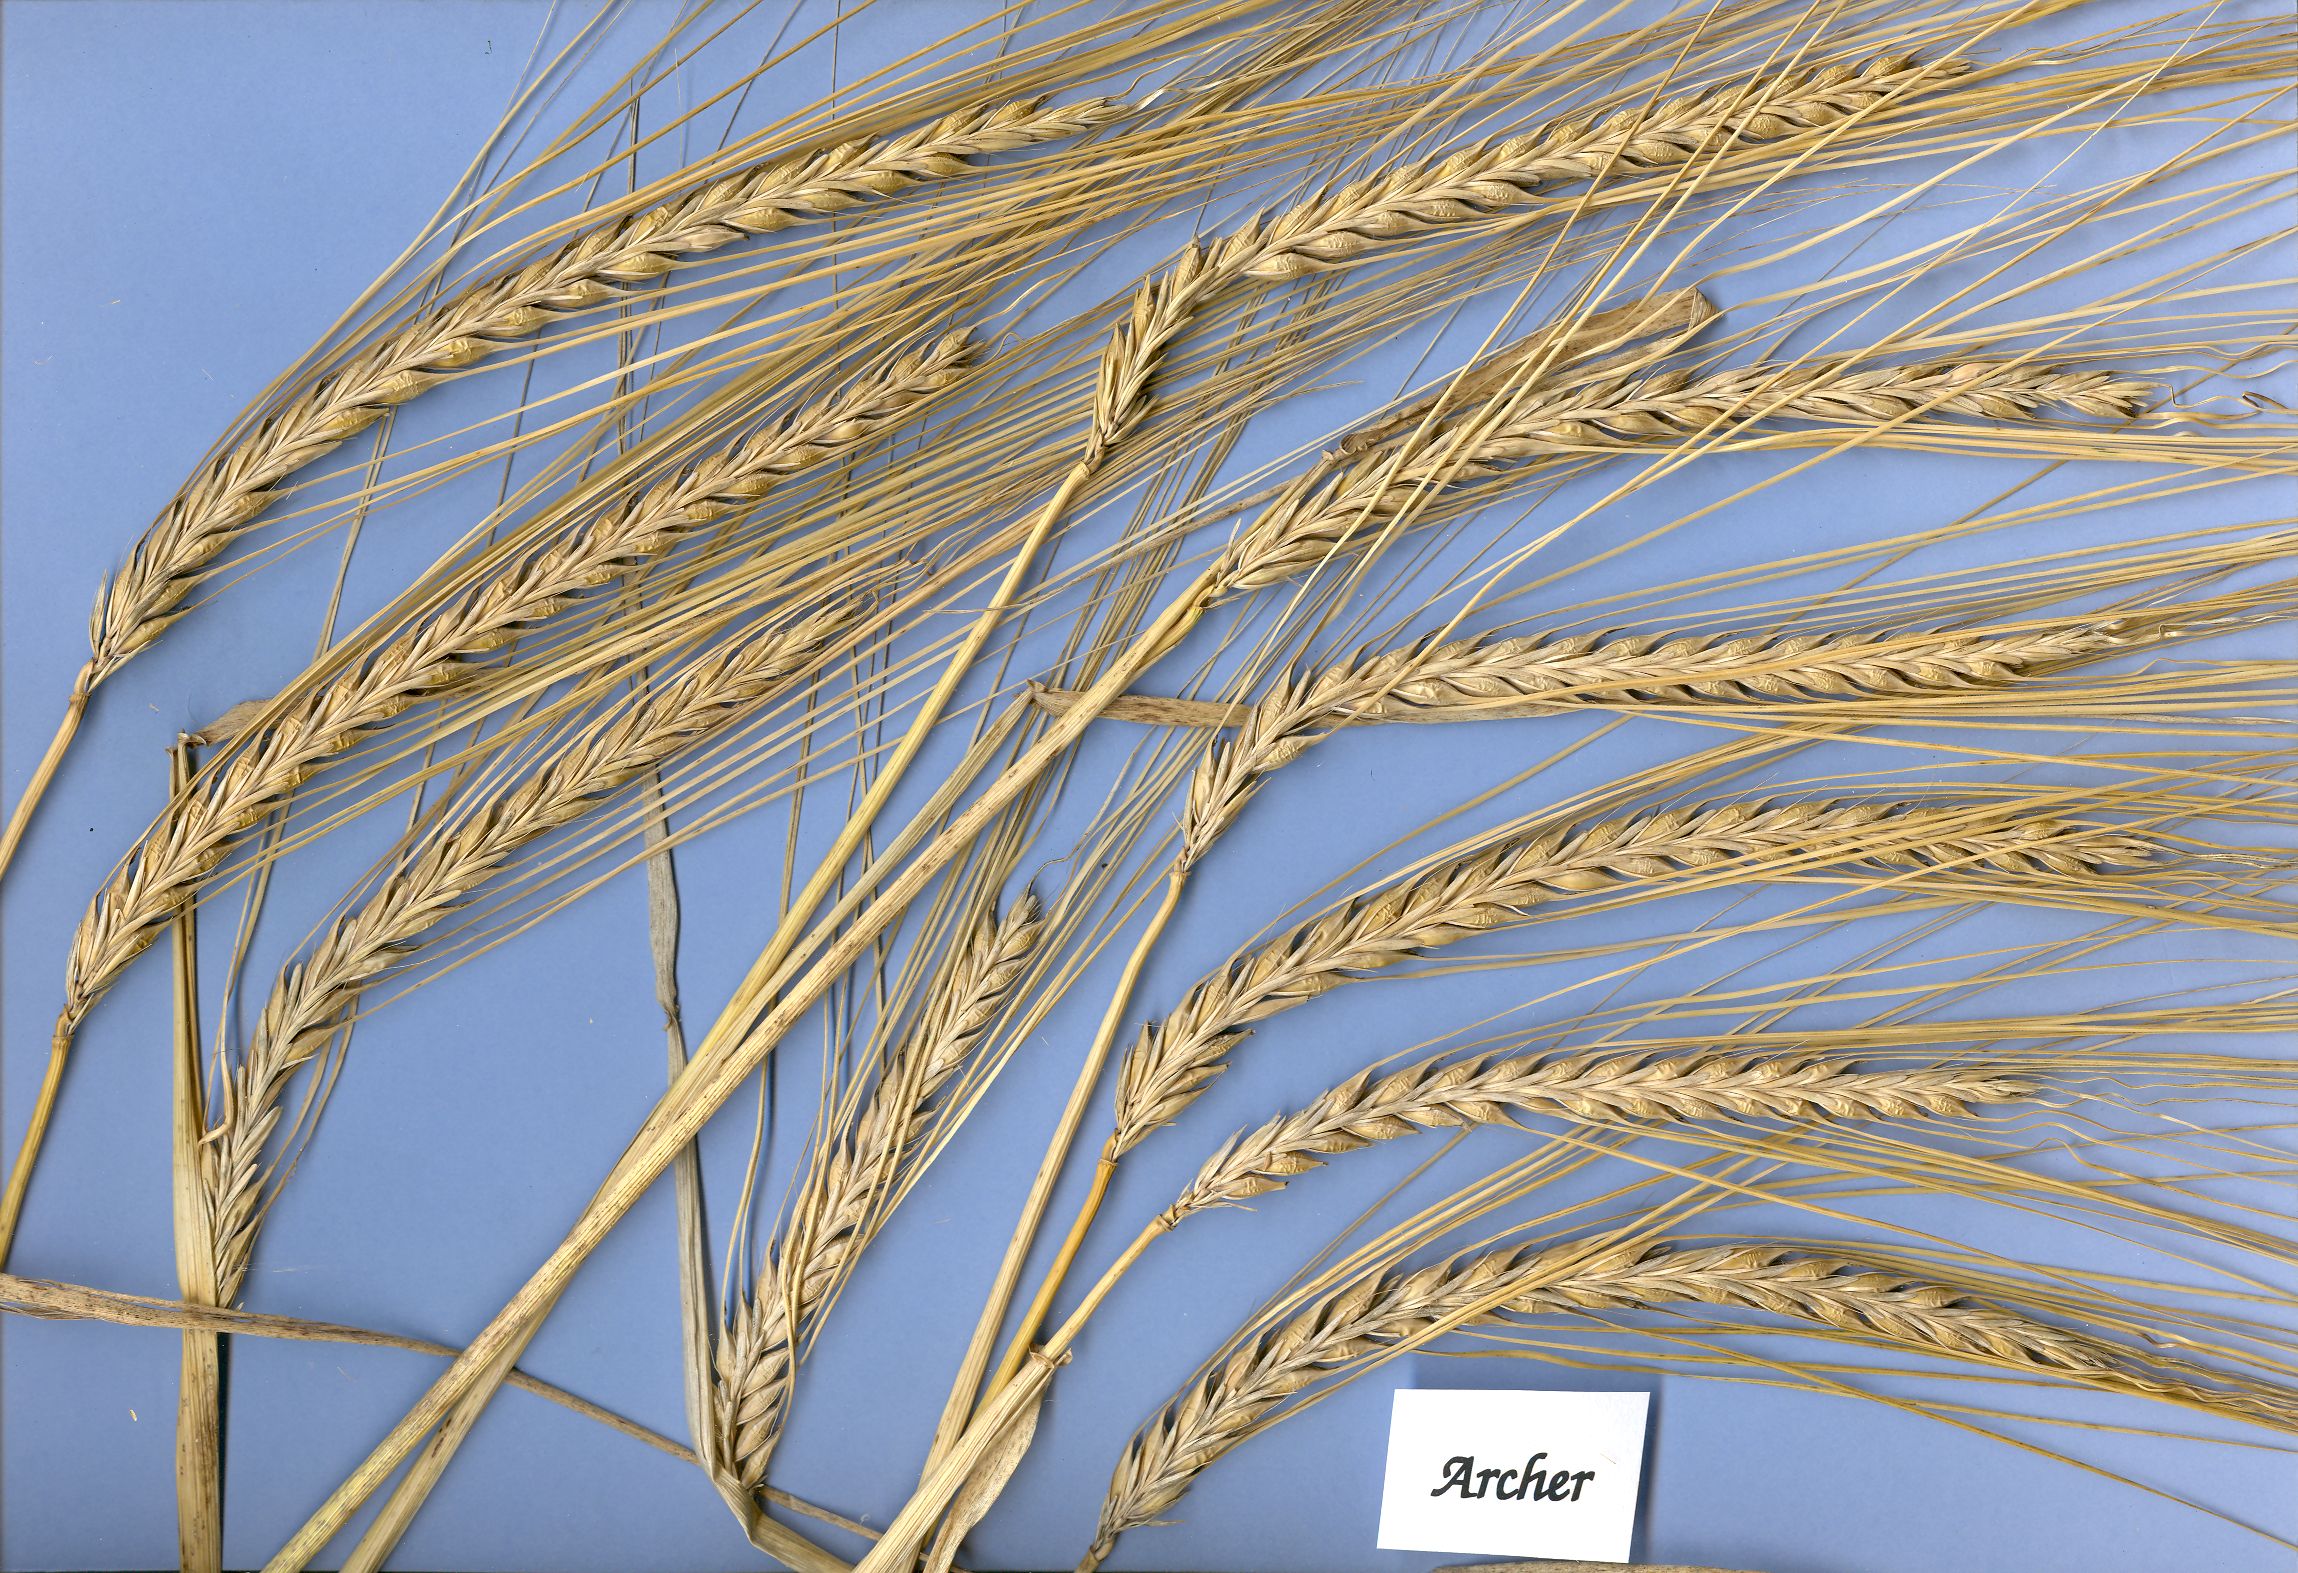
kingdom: Plantae
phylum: Tracheophyta
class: Liliopsida
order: Poales
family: Poaceae
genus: Hordeum
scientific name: Hordeum vulgare
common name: Common barley
